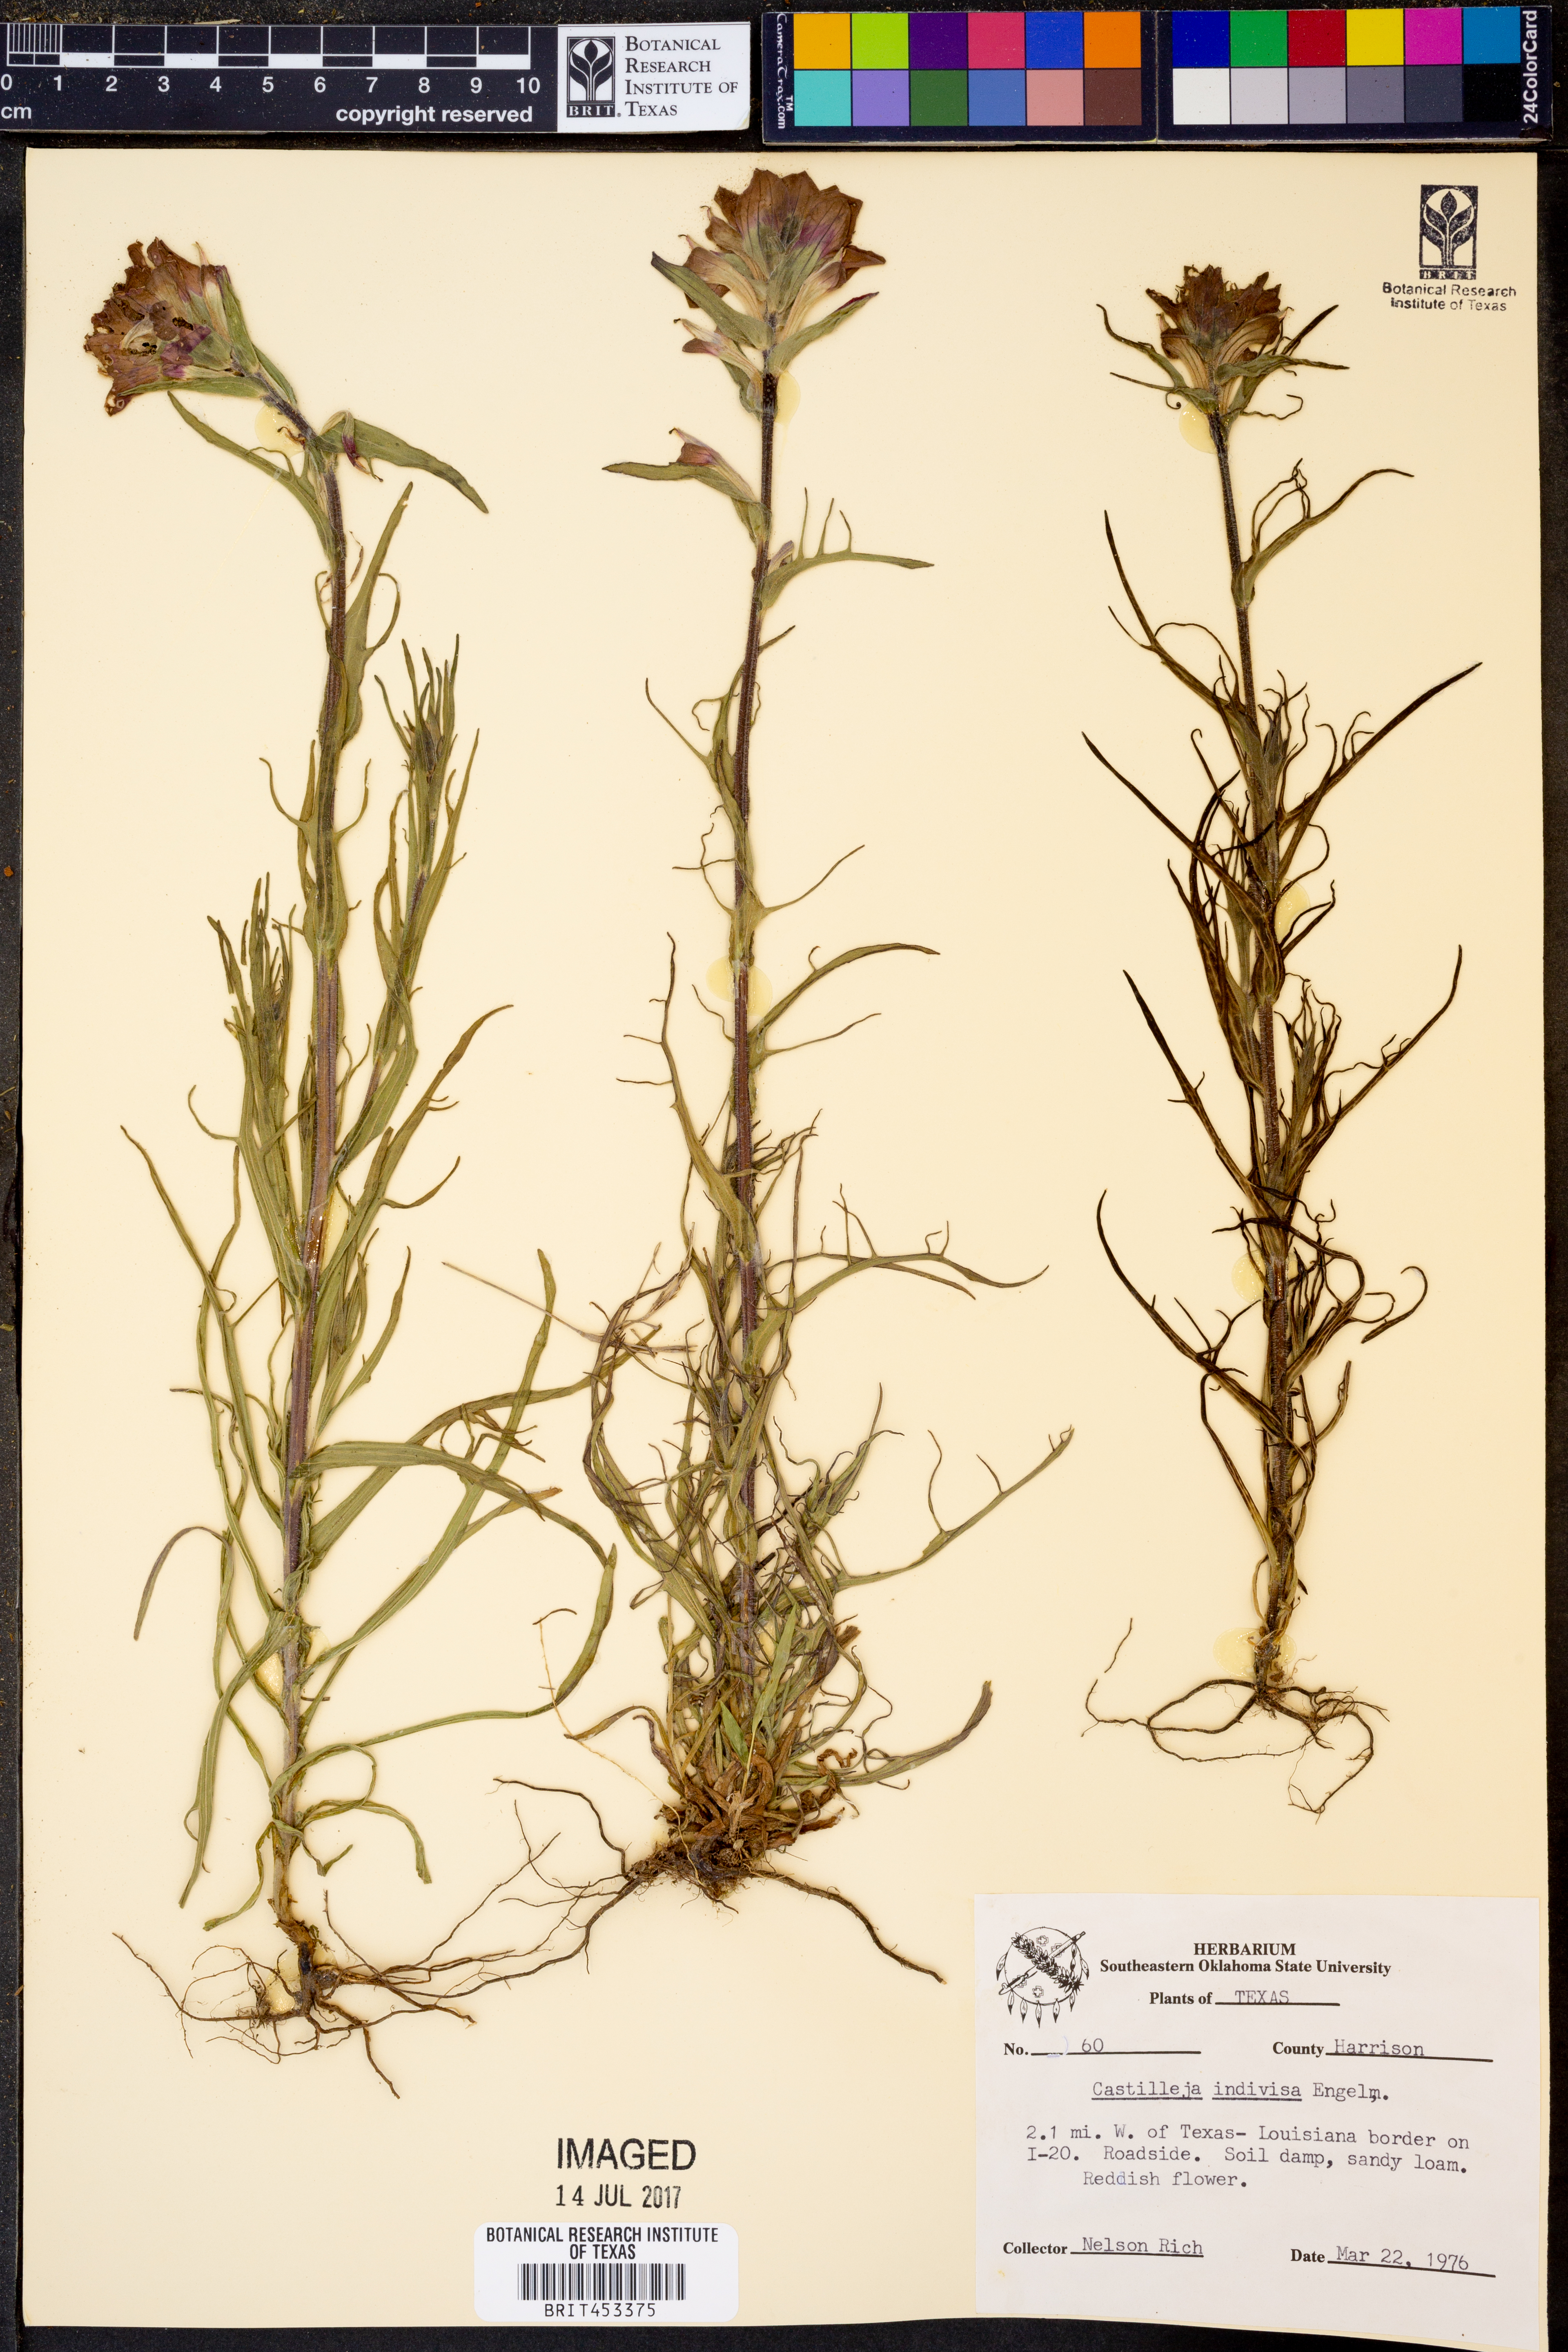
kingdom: Plantae
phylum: Tracheophyta
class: Magnoliopsida
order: Lamiales
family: Orobanchaceae
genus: Castilleja
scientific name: Castilleja indivisa
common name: Texas paintbrush
